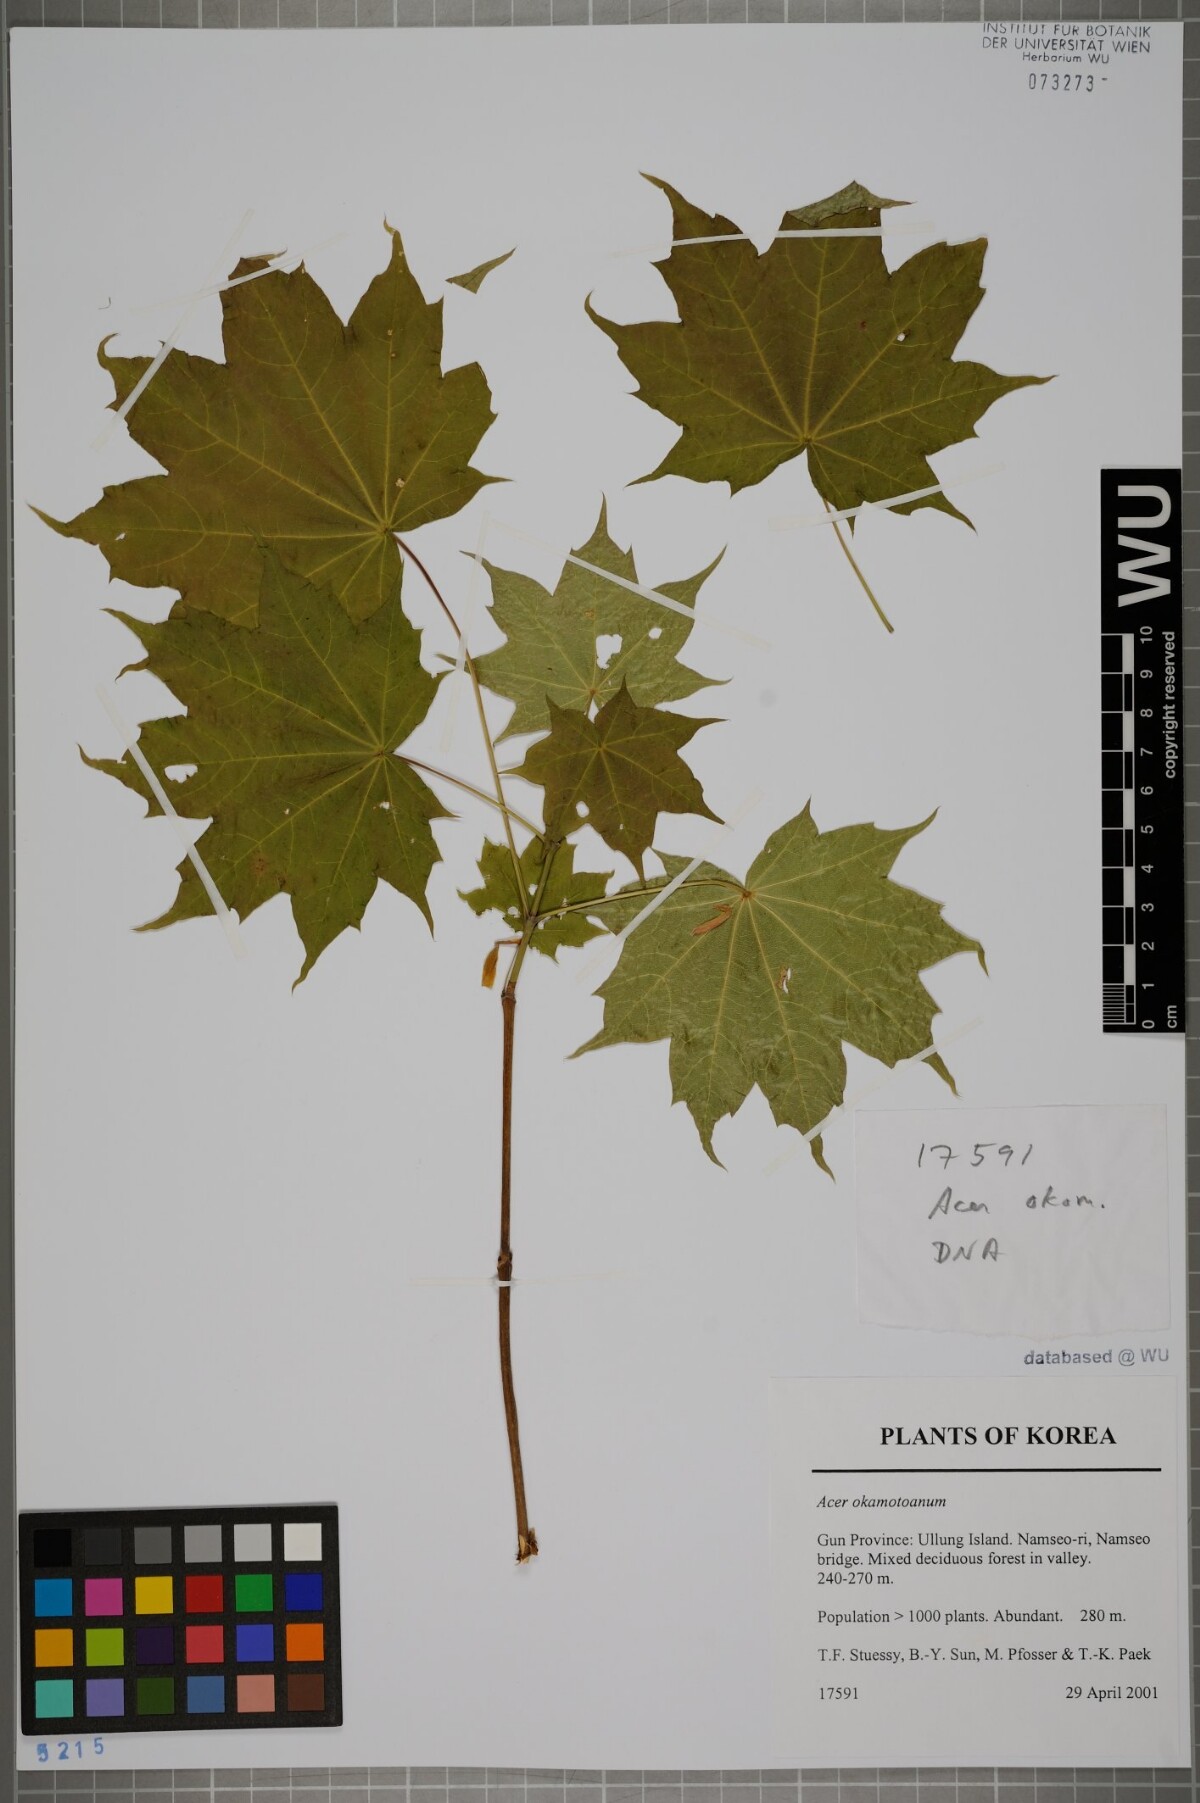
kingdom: Plantae
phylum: Tracheophyta
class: Magnoliopsida
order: Sapindales
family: Sapindaceae
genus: Acer
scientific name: Acer pictum
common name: The painted maple
